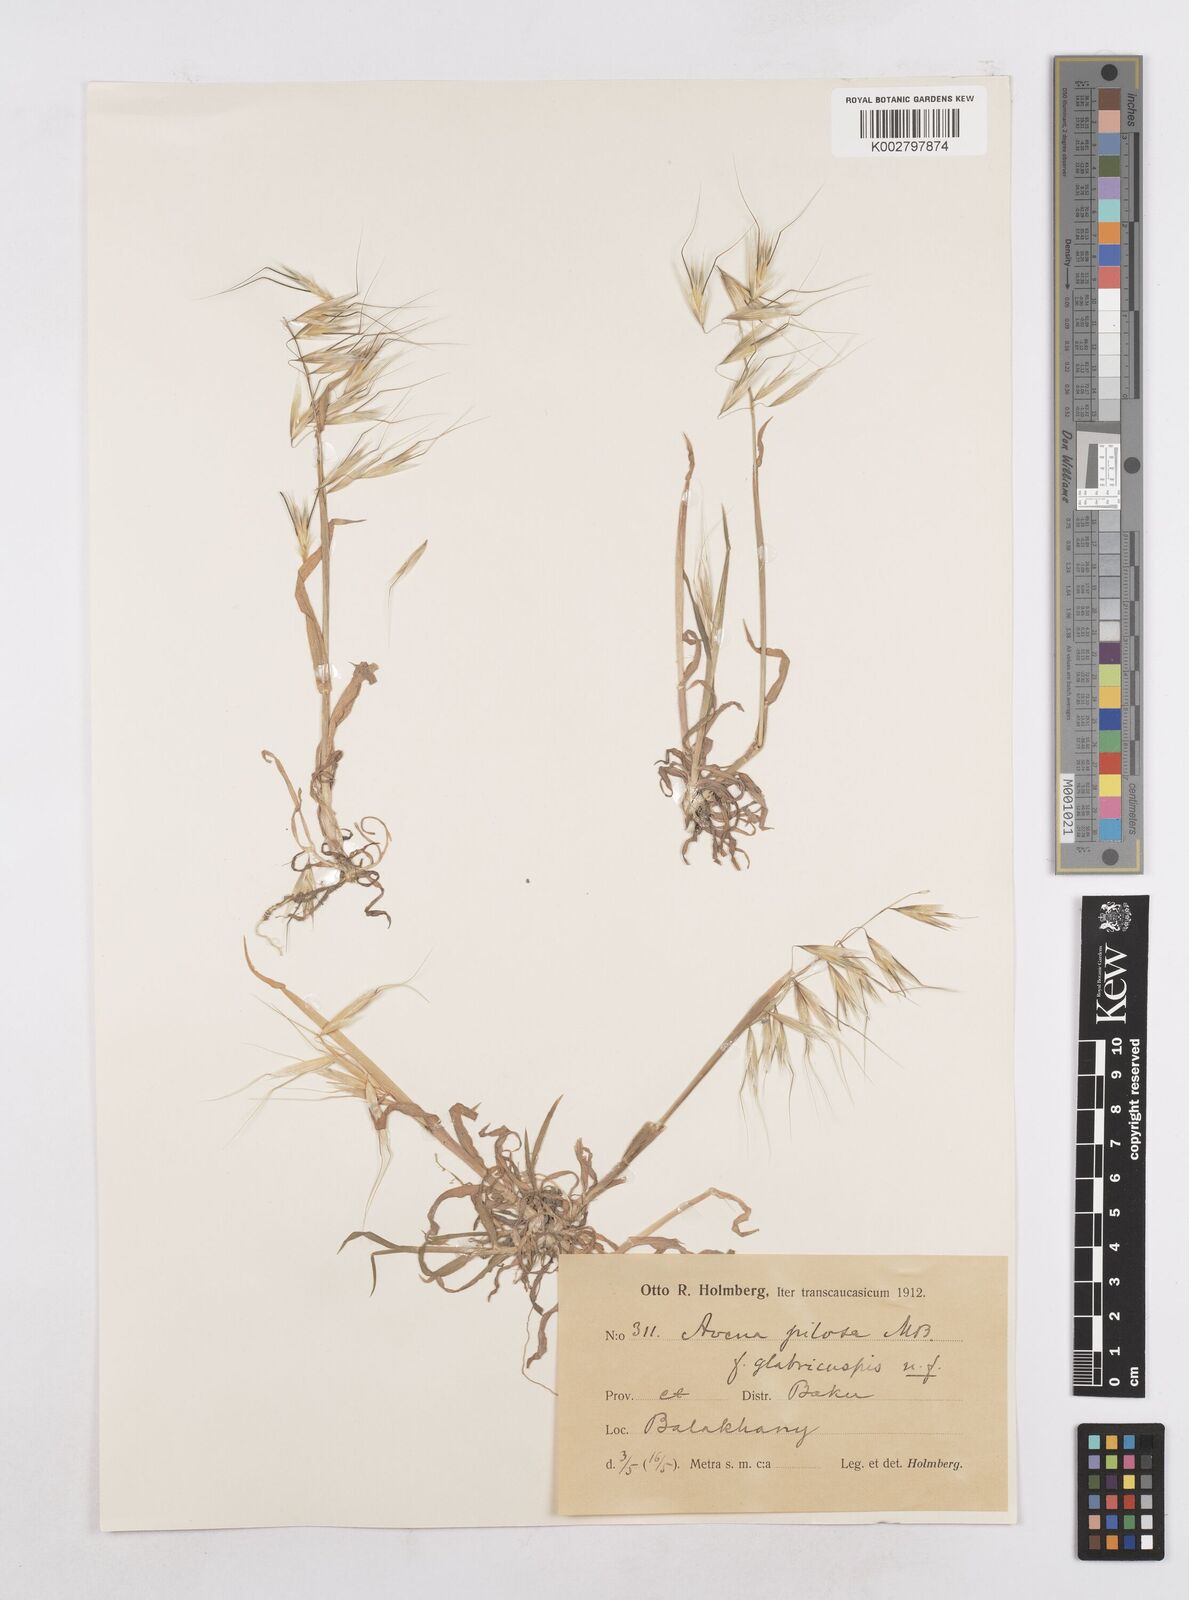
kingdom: Plantae
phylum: Tracheophyta
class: Liliopsida
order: Poales
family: Poaceae
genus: Avena
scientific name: Avena
